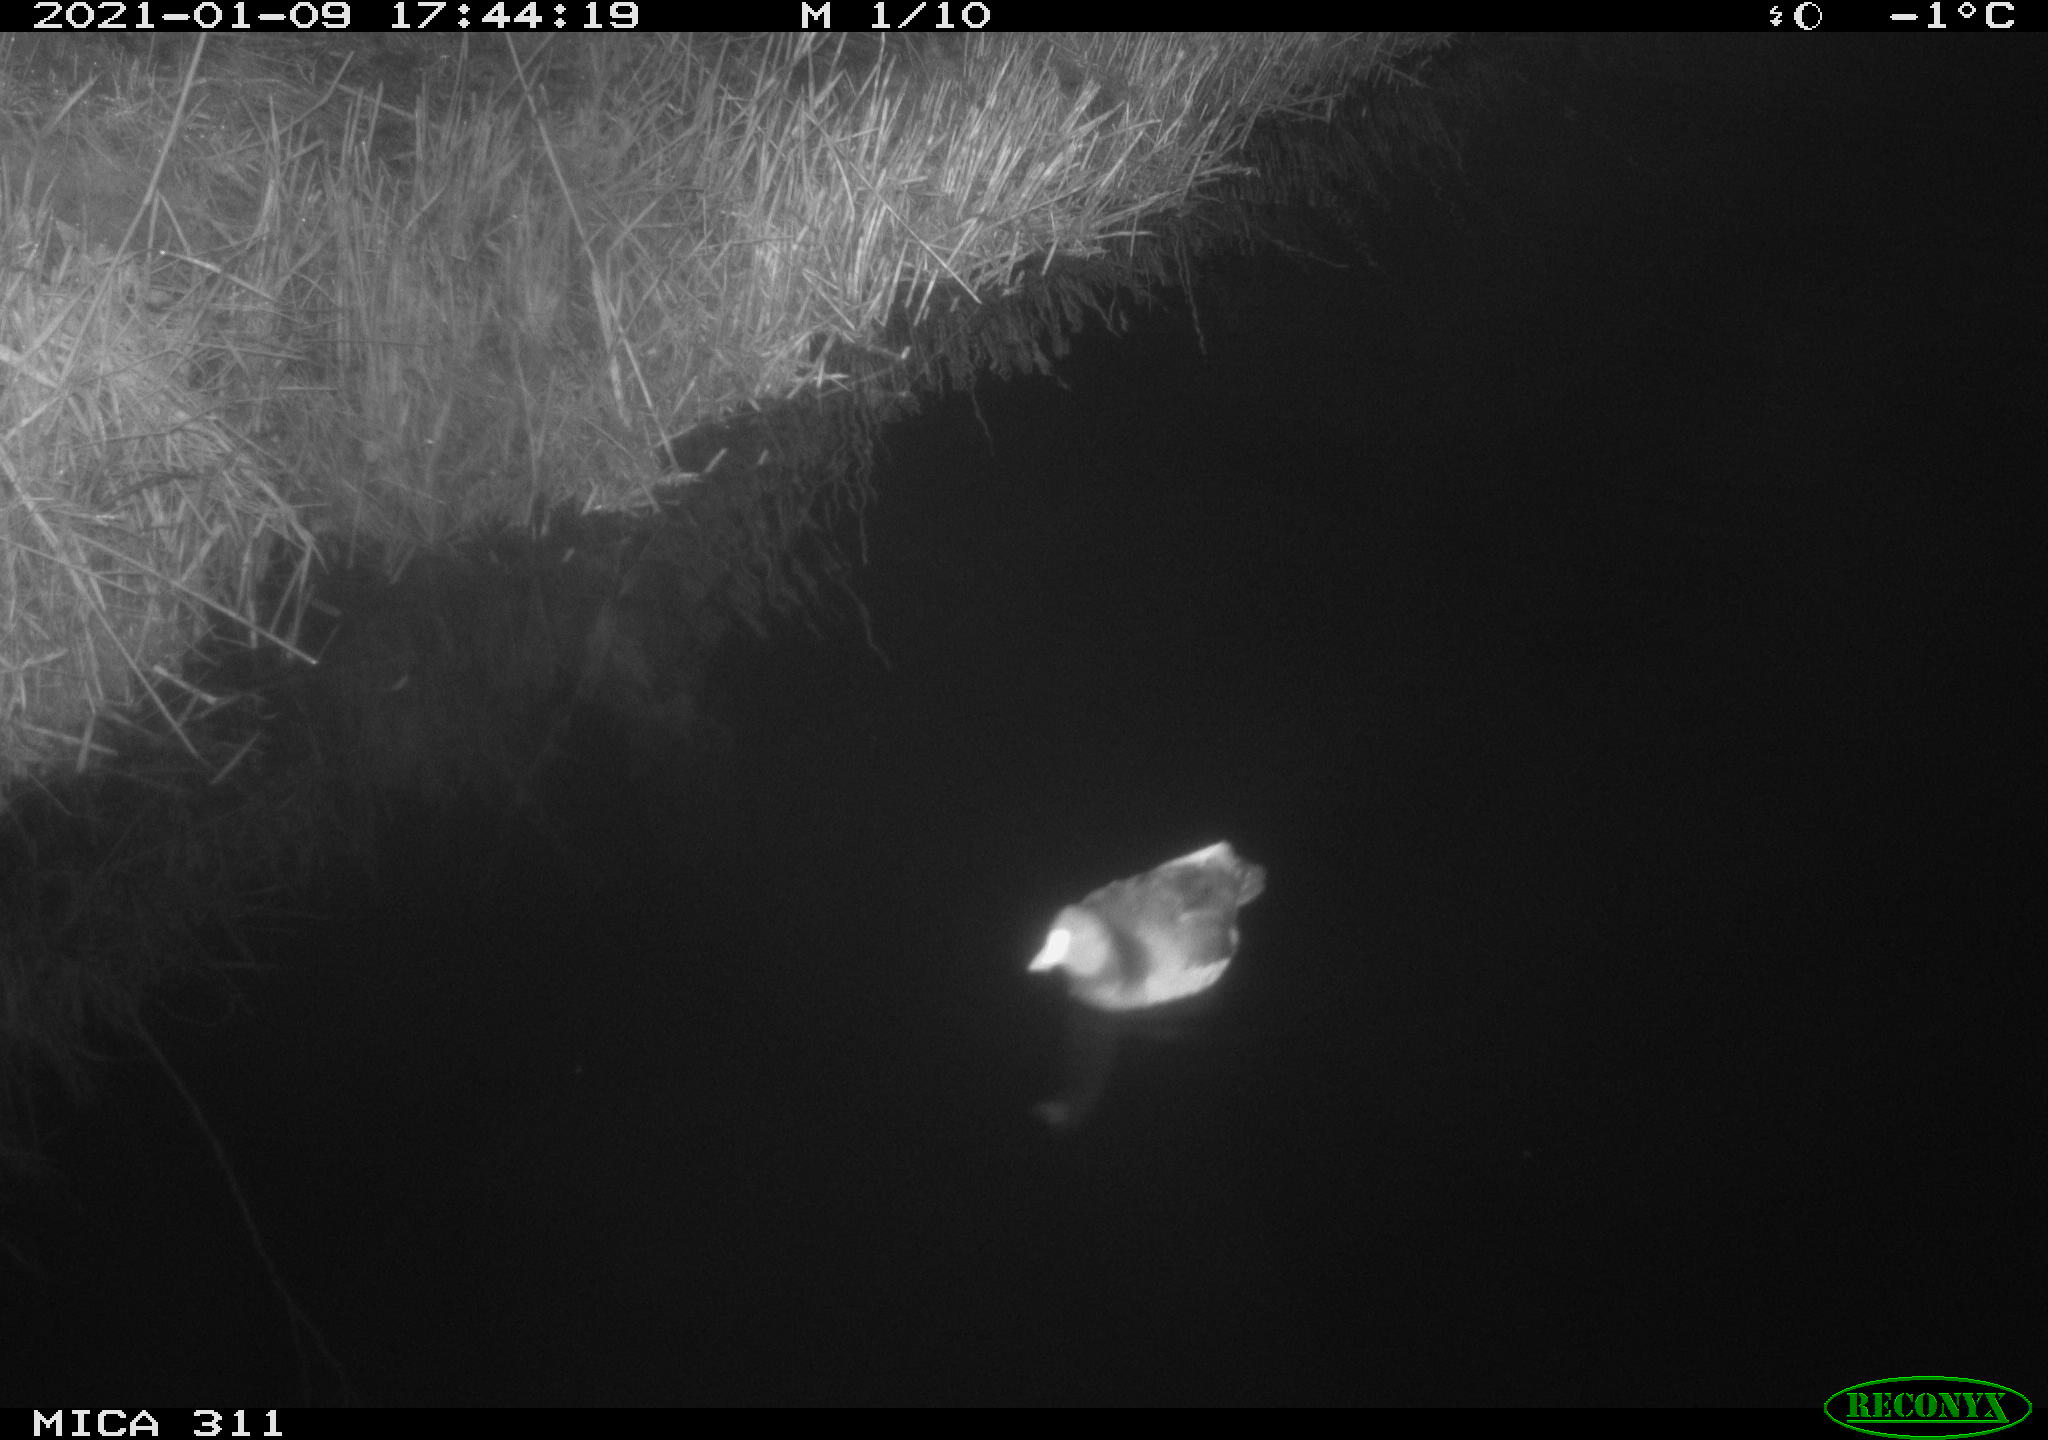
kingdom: Animalia
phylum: Chordata
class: Aves
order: Gruiformes
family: Rallidae
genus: Gallinula
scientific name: Gallinula chloropus
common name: Common moorhen
